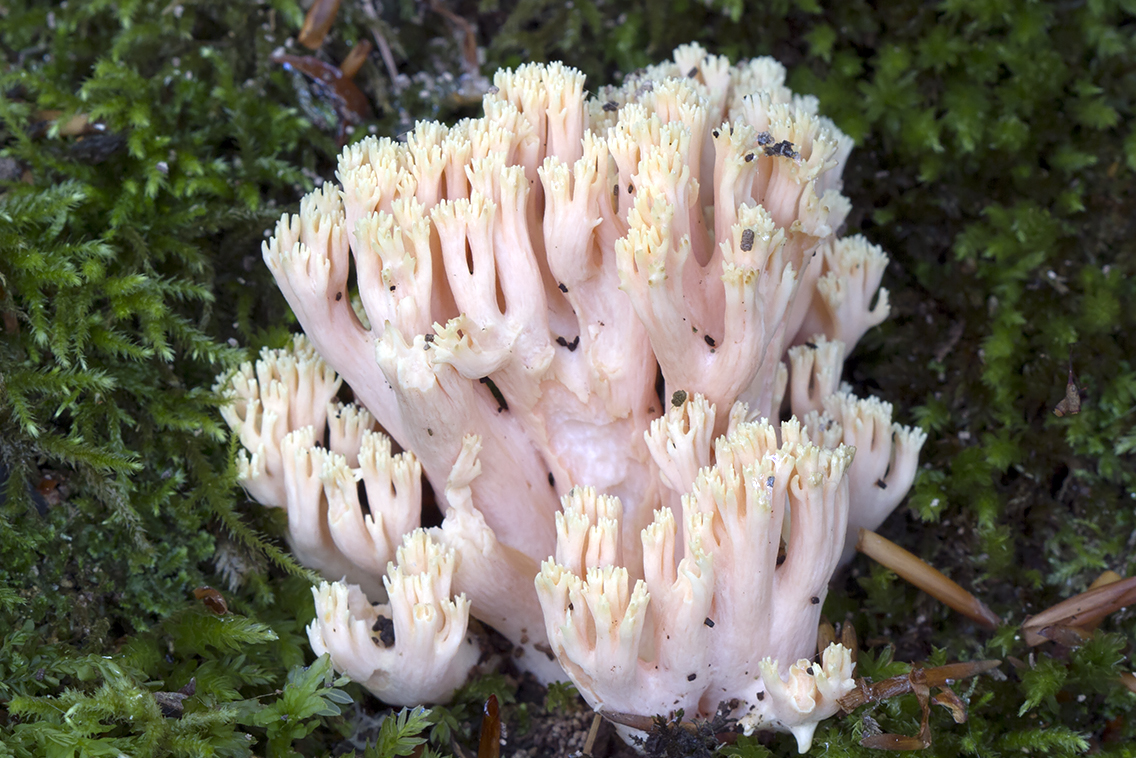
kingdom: Fungi
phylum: Basidiomycota
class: Agaricomycetes
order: Gomphales
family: Gomphaceae
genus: Ramaria
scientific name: Ramaria formosa
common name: smuk koralsvamp
